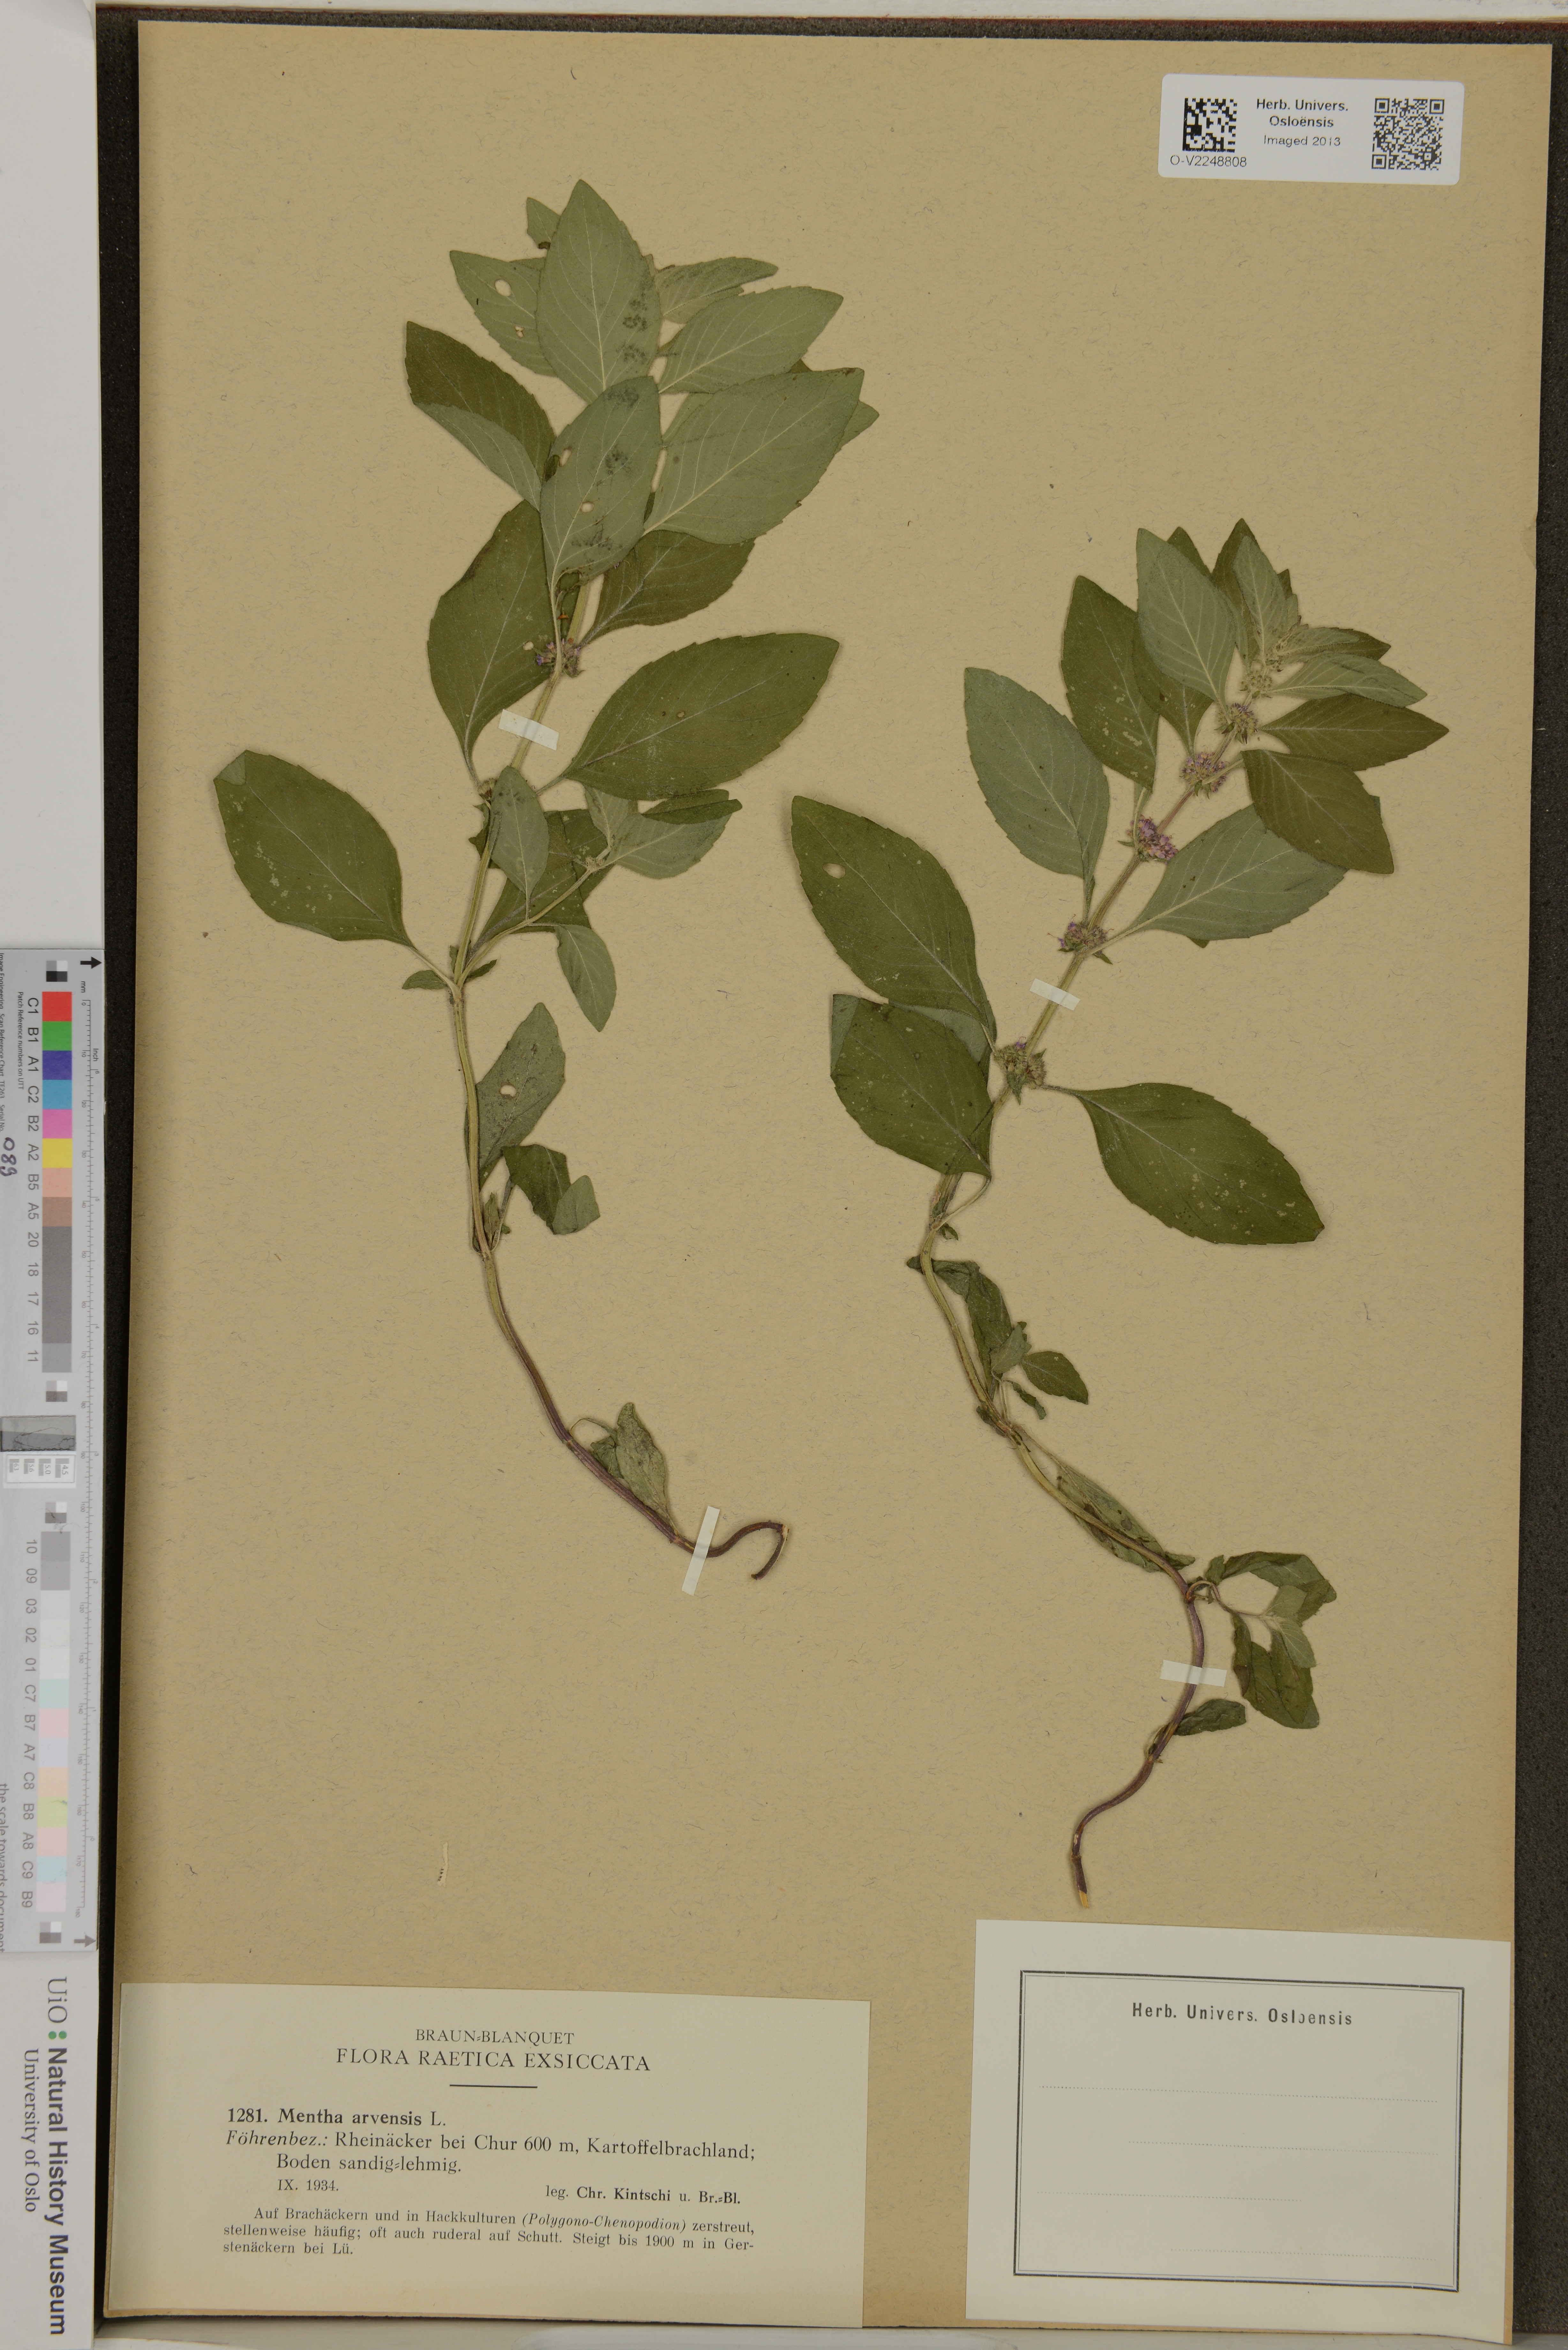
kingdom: Plantae
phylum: Tracheophyta
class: Magnoliopsida
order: Lamiales
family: Lamiaceae
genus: Mentha
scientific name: Mentha arvensis
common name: Corn mint
